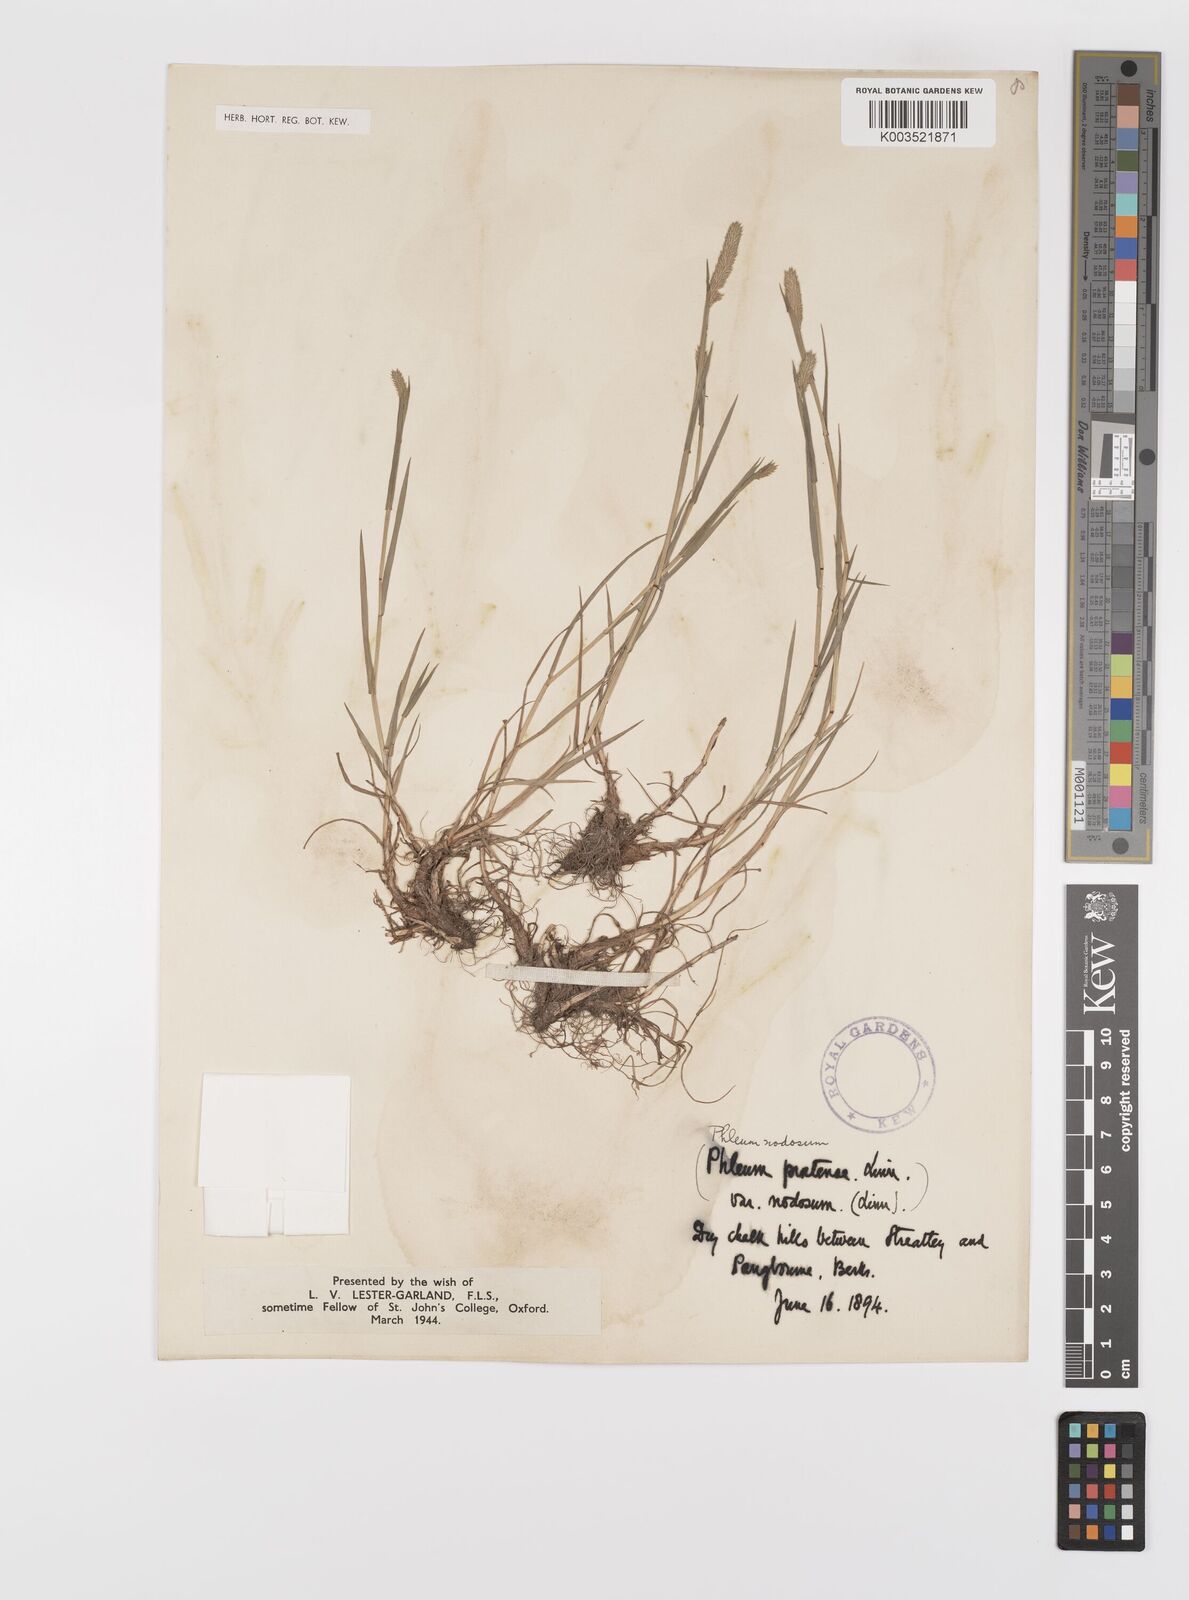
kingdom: Plantae
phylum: Tracheophyta
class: Liliopsida
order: Poales
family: Poaceae
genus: Phleum
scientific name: Phleum bertolonii
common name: Smaller cat's-tail
